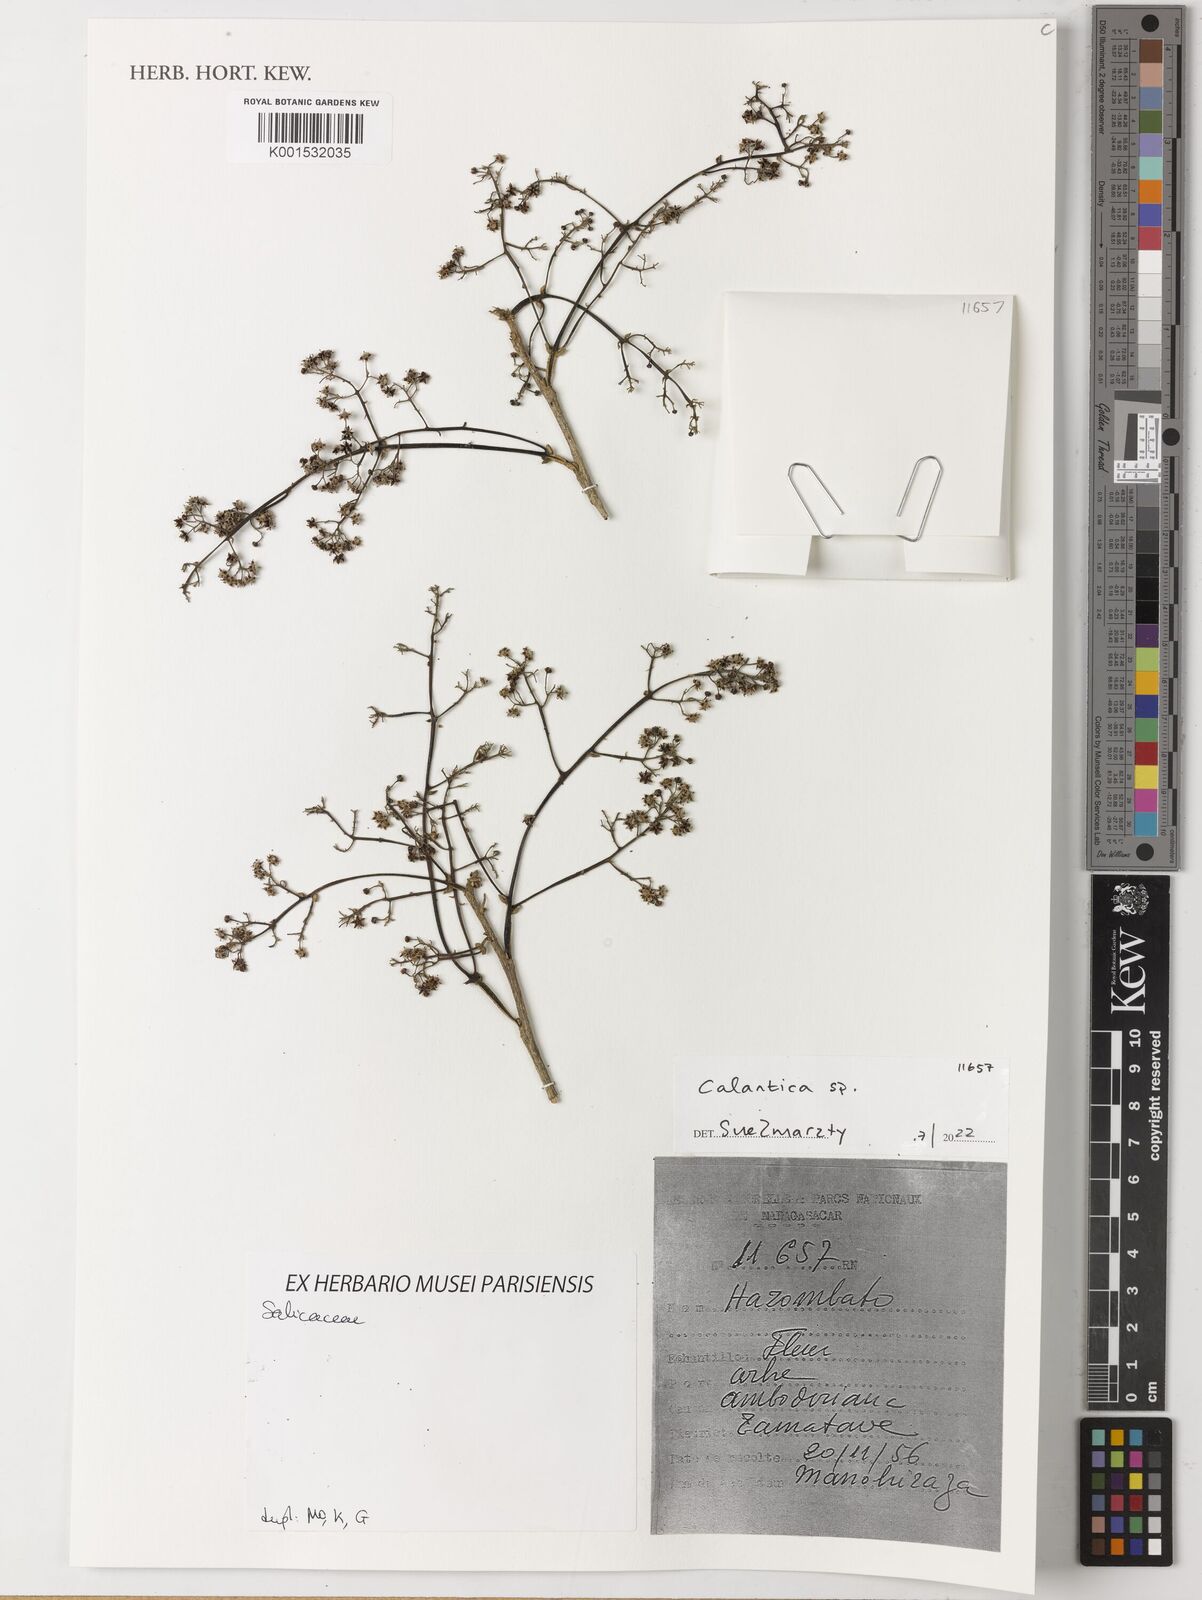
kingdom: Plantae
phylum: Tracheophyta
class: Magnoliopsida
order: Malpighiales
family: Salicaceae
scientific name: Salicaceae
